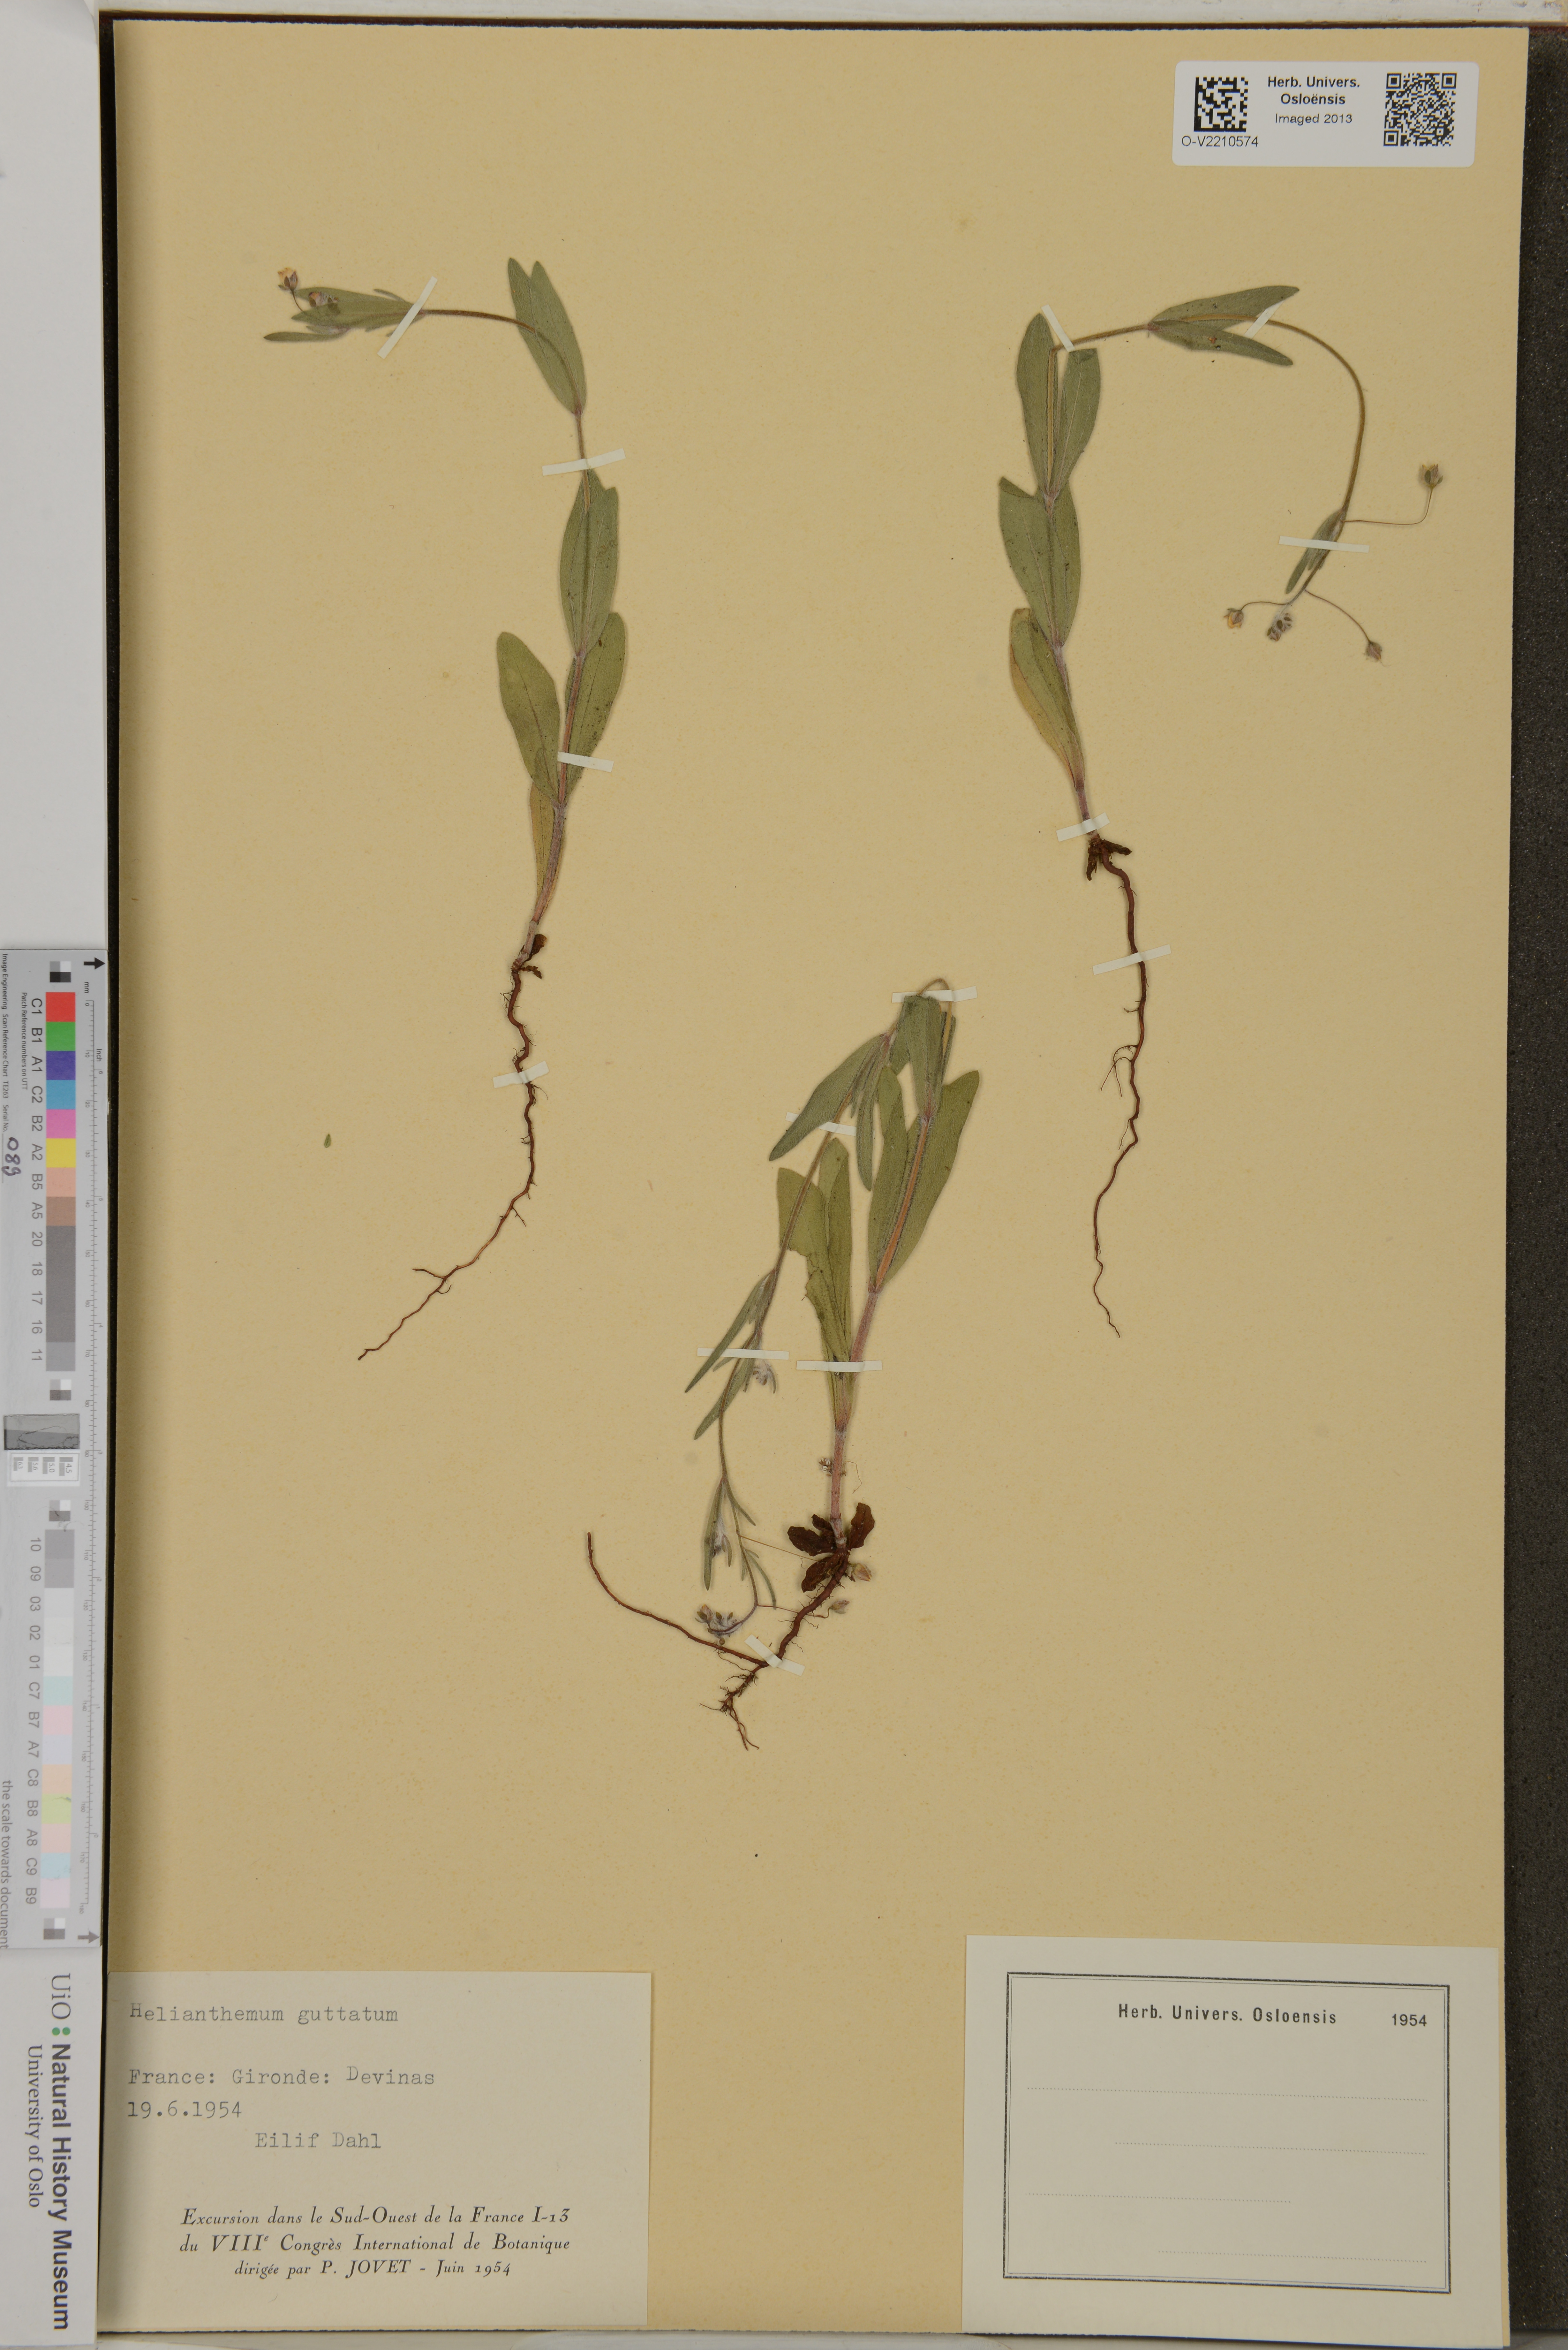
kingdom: Plantae
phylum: Tracheophyta
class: Magnoliopsida
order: Malvales
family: Cistaceae
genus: Tuberaria
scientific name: Tuberaria guttata
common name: Spotted rock-rose
